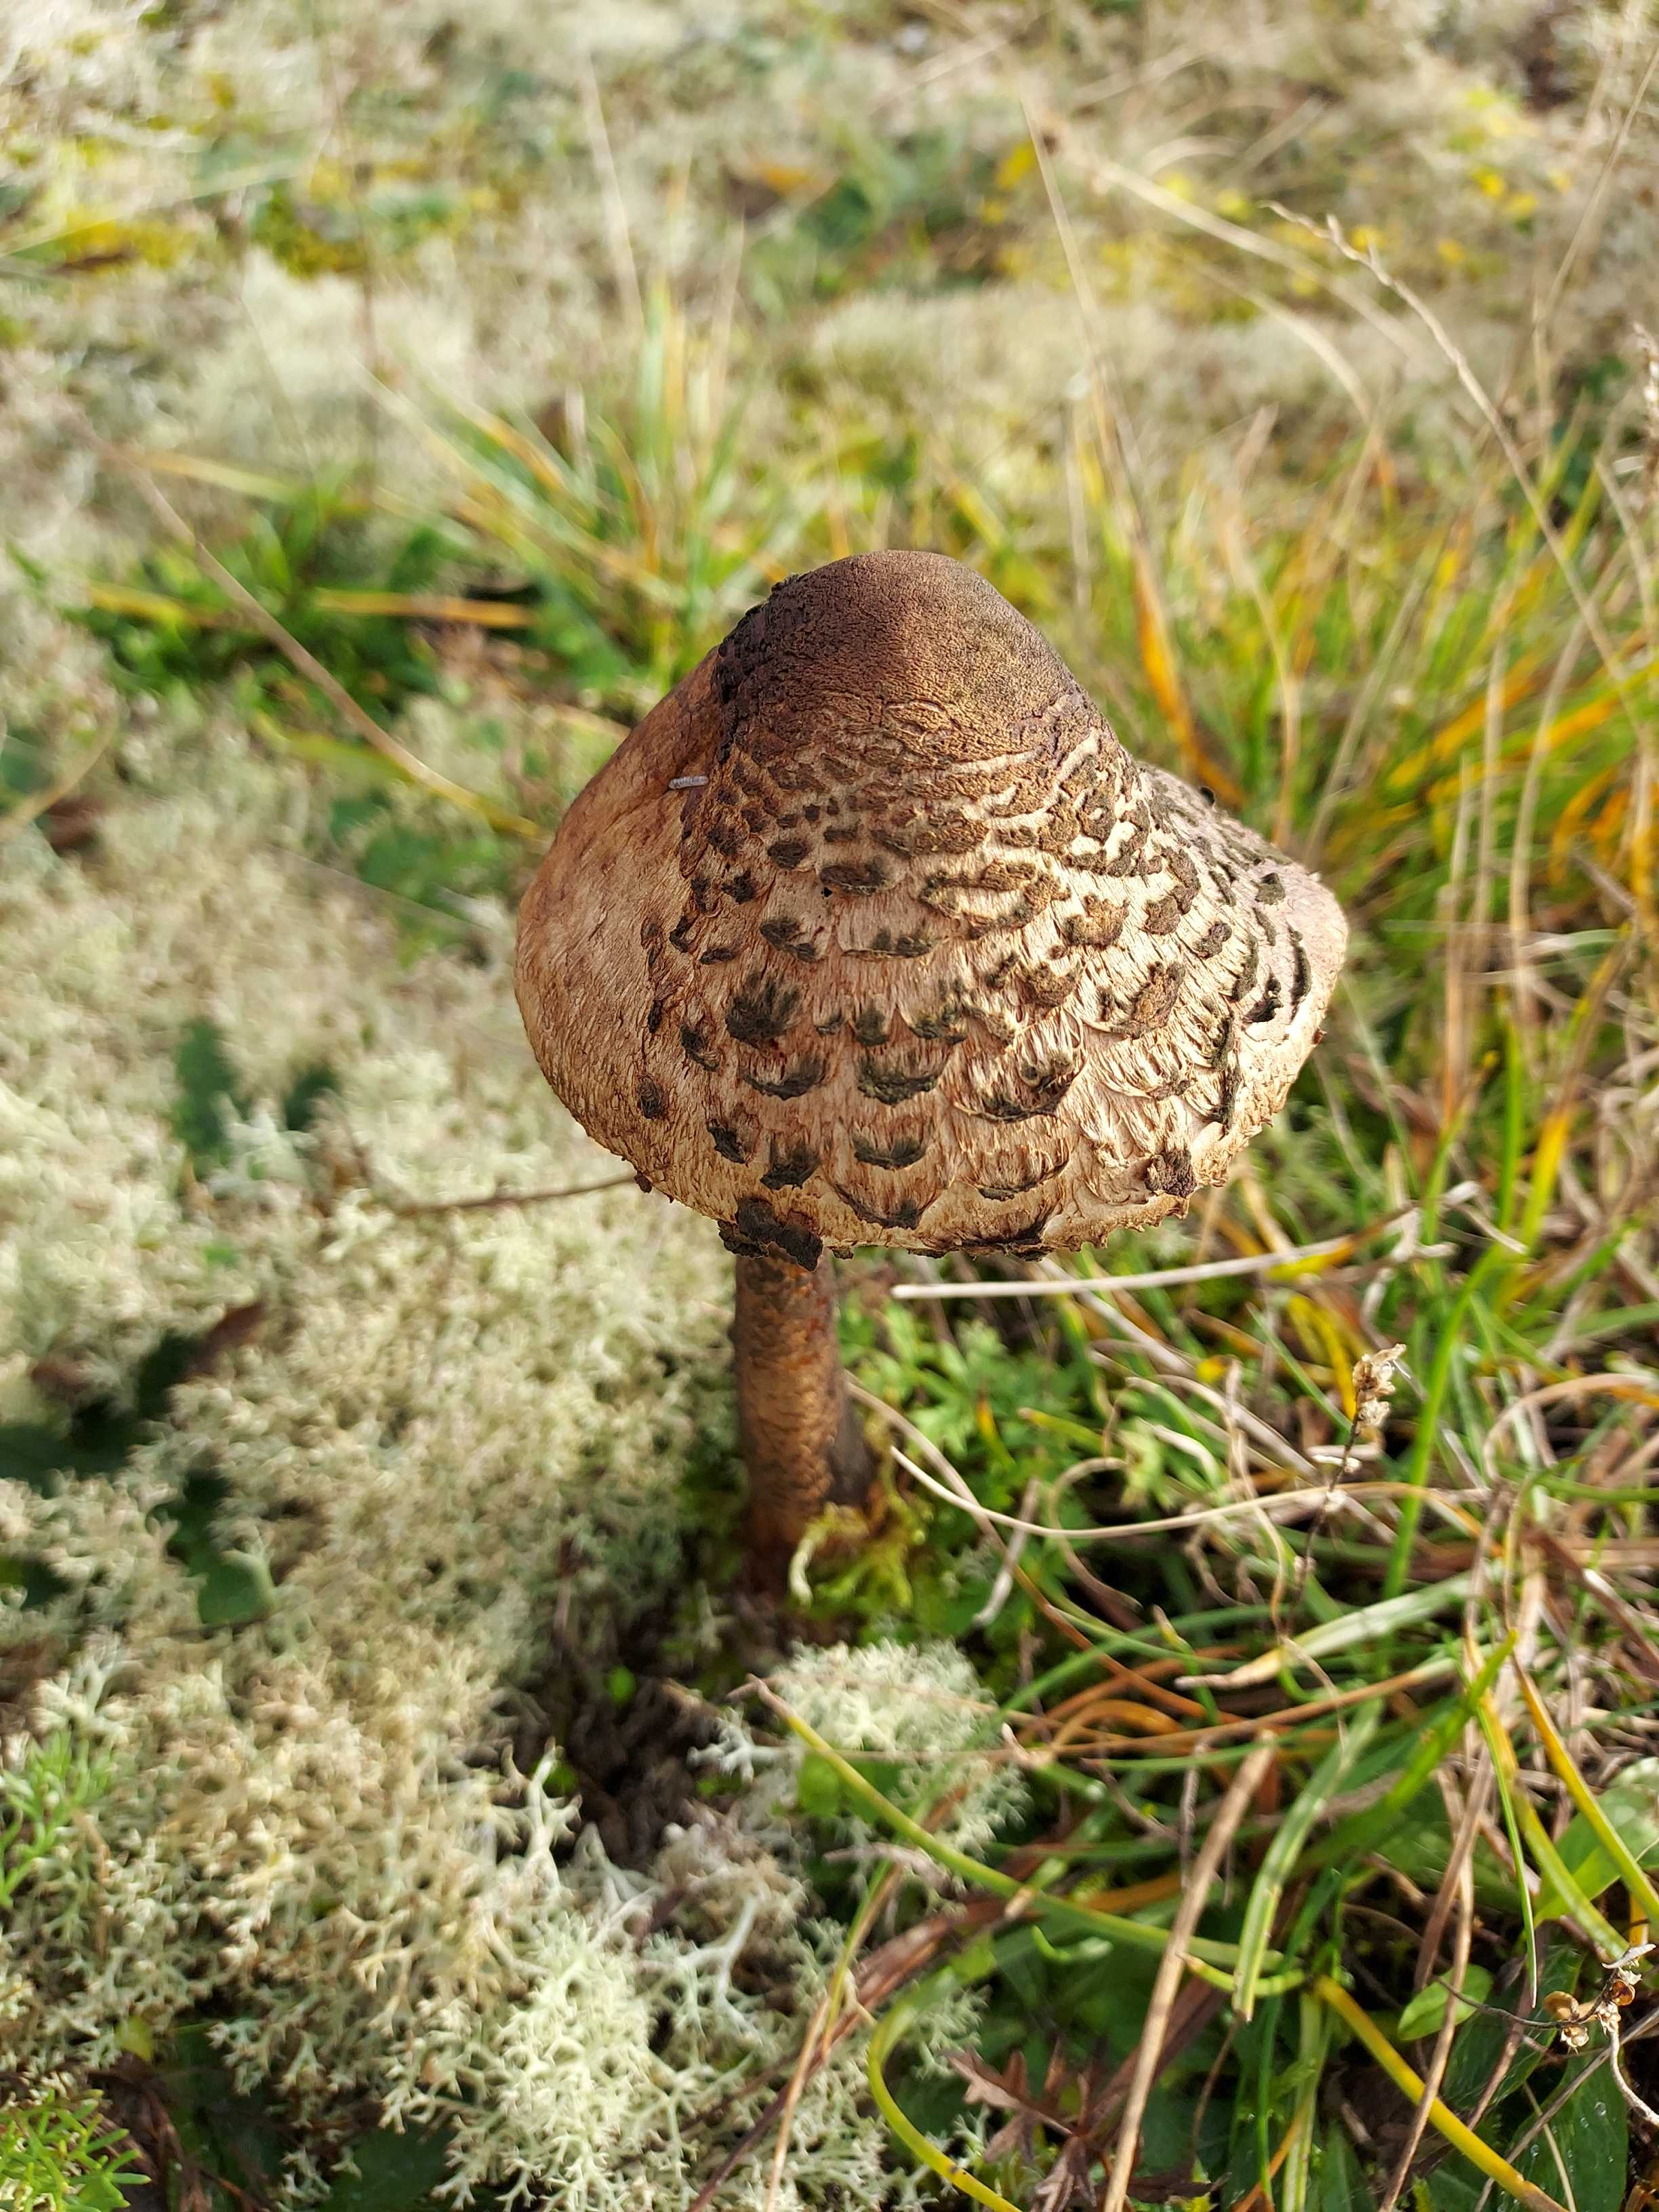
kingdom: Fungi
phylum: Basidiomycota
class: Agaricomycetes
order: Agaricales
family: Agaricaceae
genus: Macrolepiota
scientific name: Macrolepiota procera
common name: stor kæmpeparasolhat
